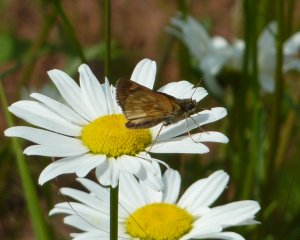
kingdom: Animalia
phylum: Arthropoda
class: Insecta
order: Lepidoptera
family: Hesperiidae
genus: Polites
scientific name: Polites coras
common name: Peck's Skipper
